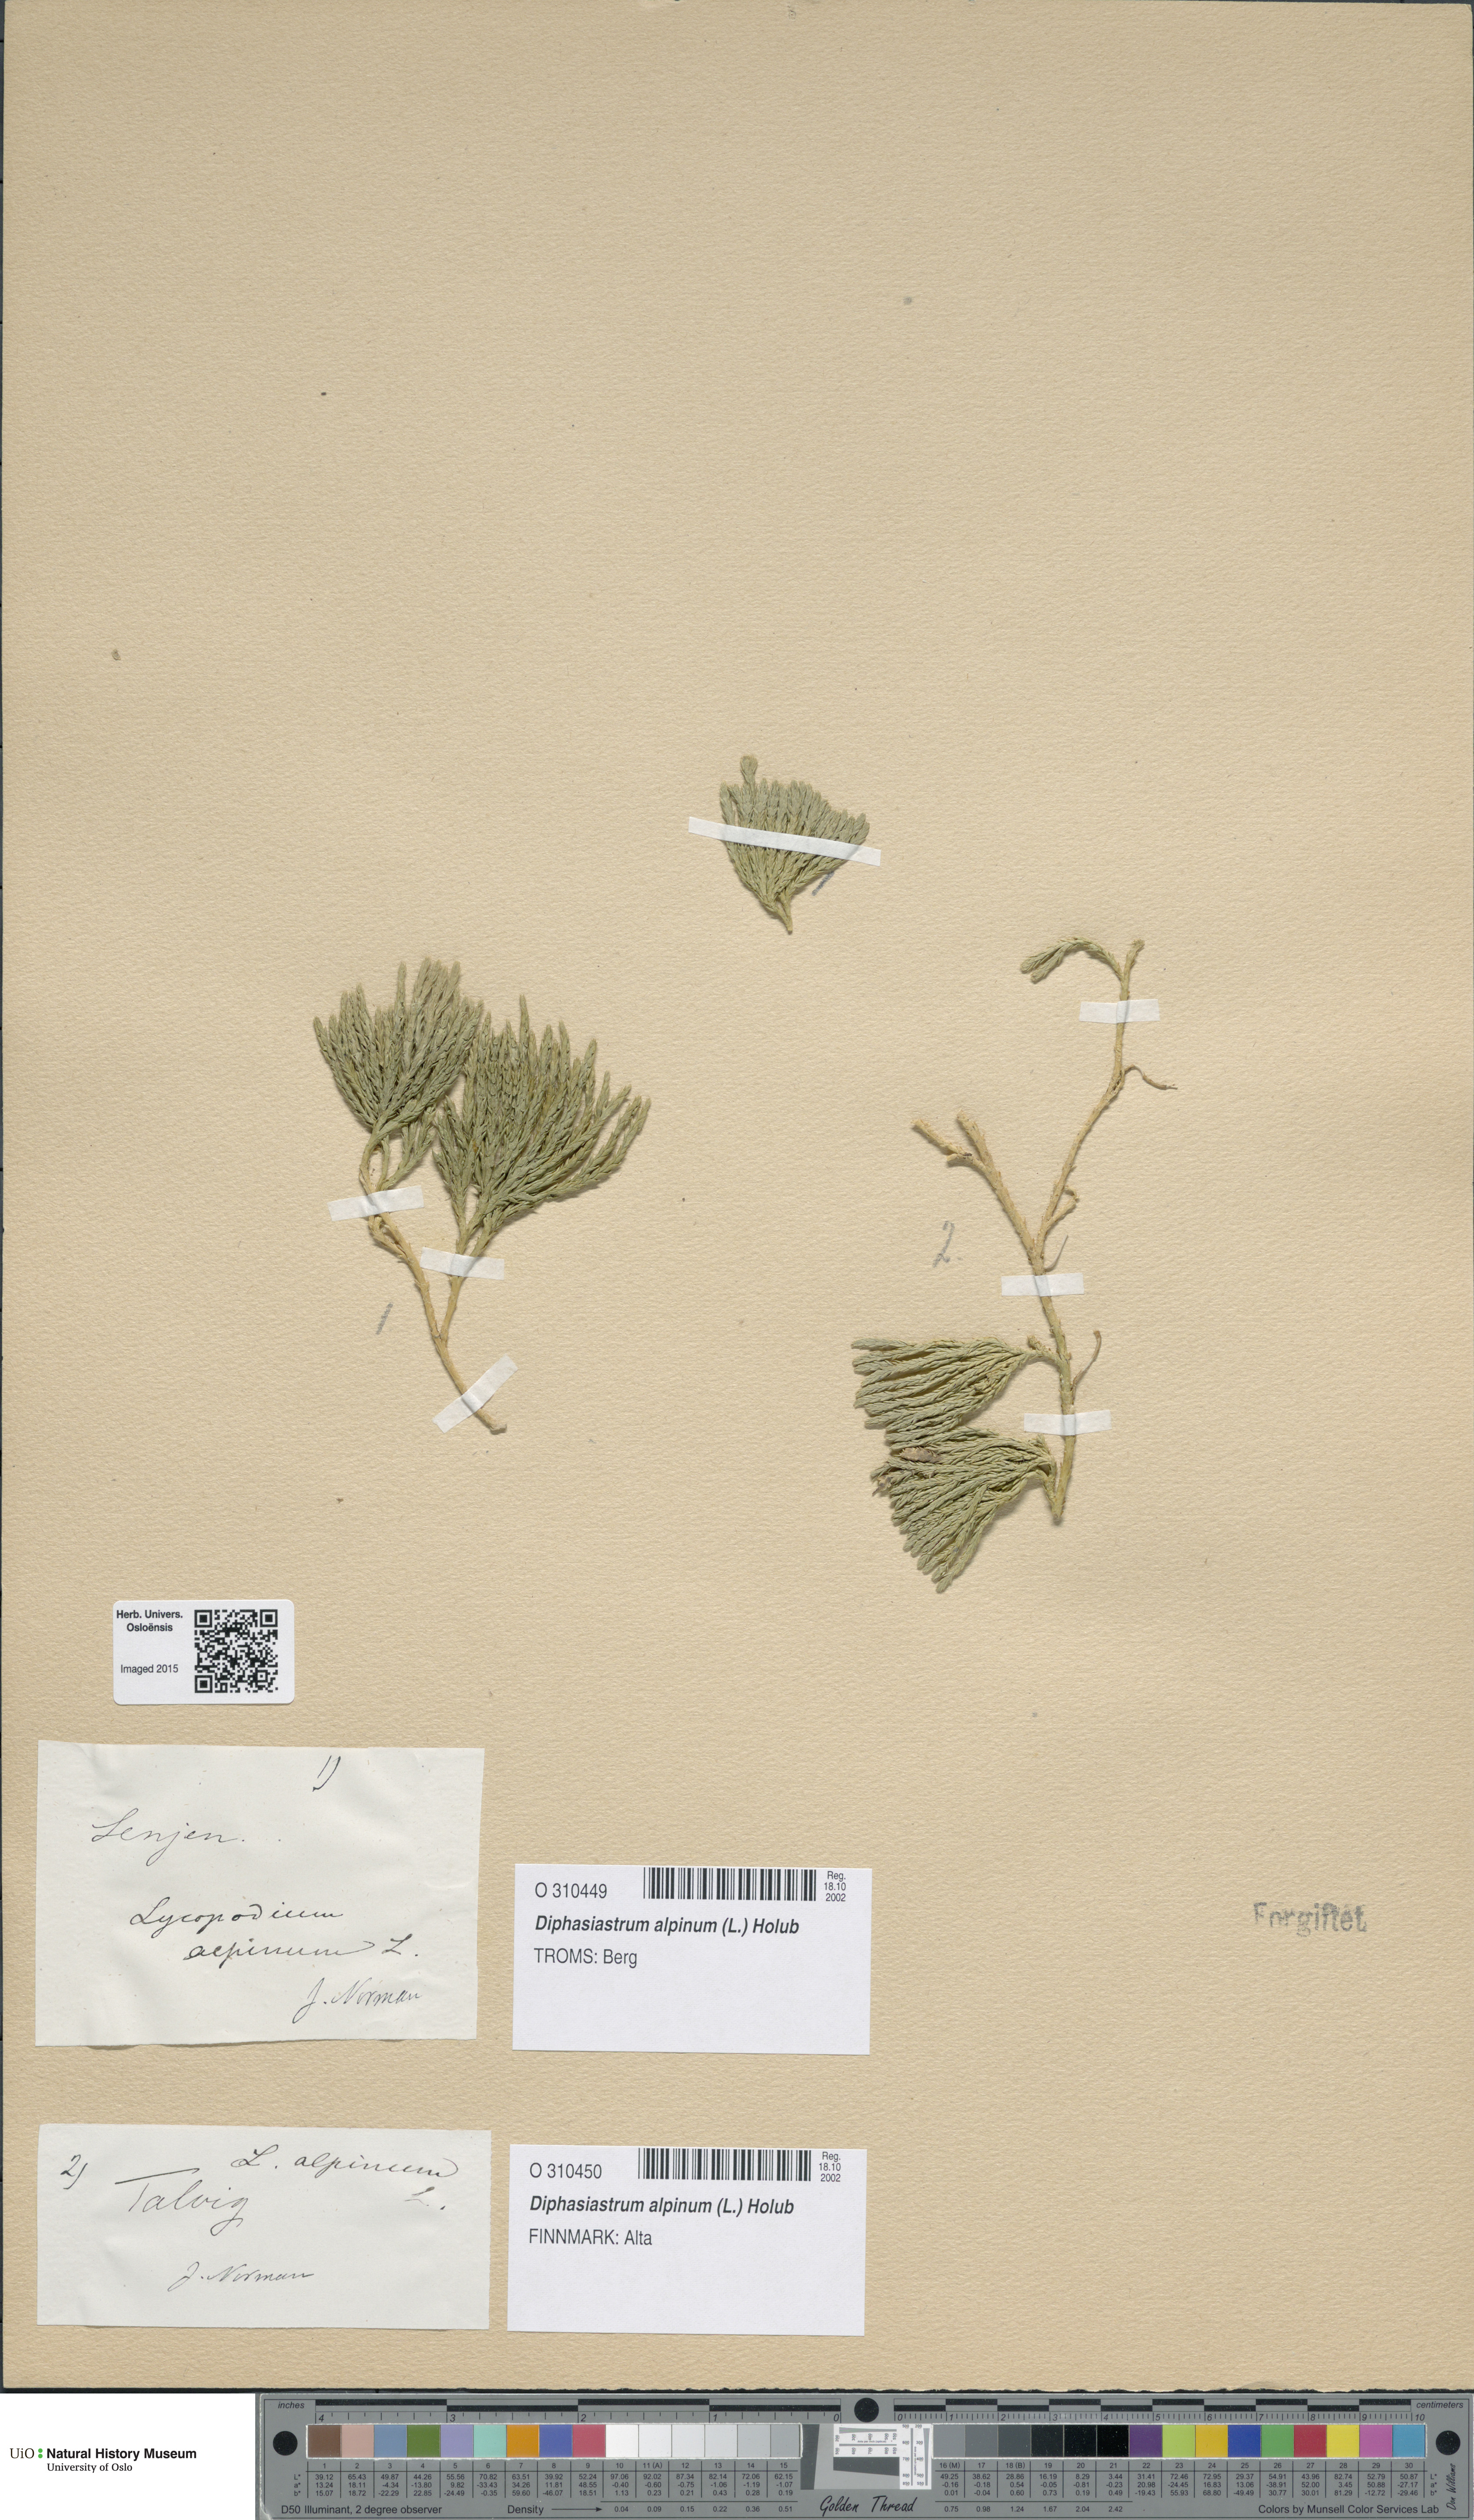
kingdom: Plantae
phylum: Tracheophyta
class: Lycopodiopsida
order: Lycopodiales
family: Lycopodiaceae
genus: Diphasiastrum
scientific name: Diphasiastrum alpinum
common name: Alpine clubmoss
